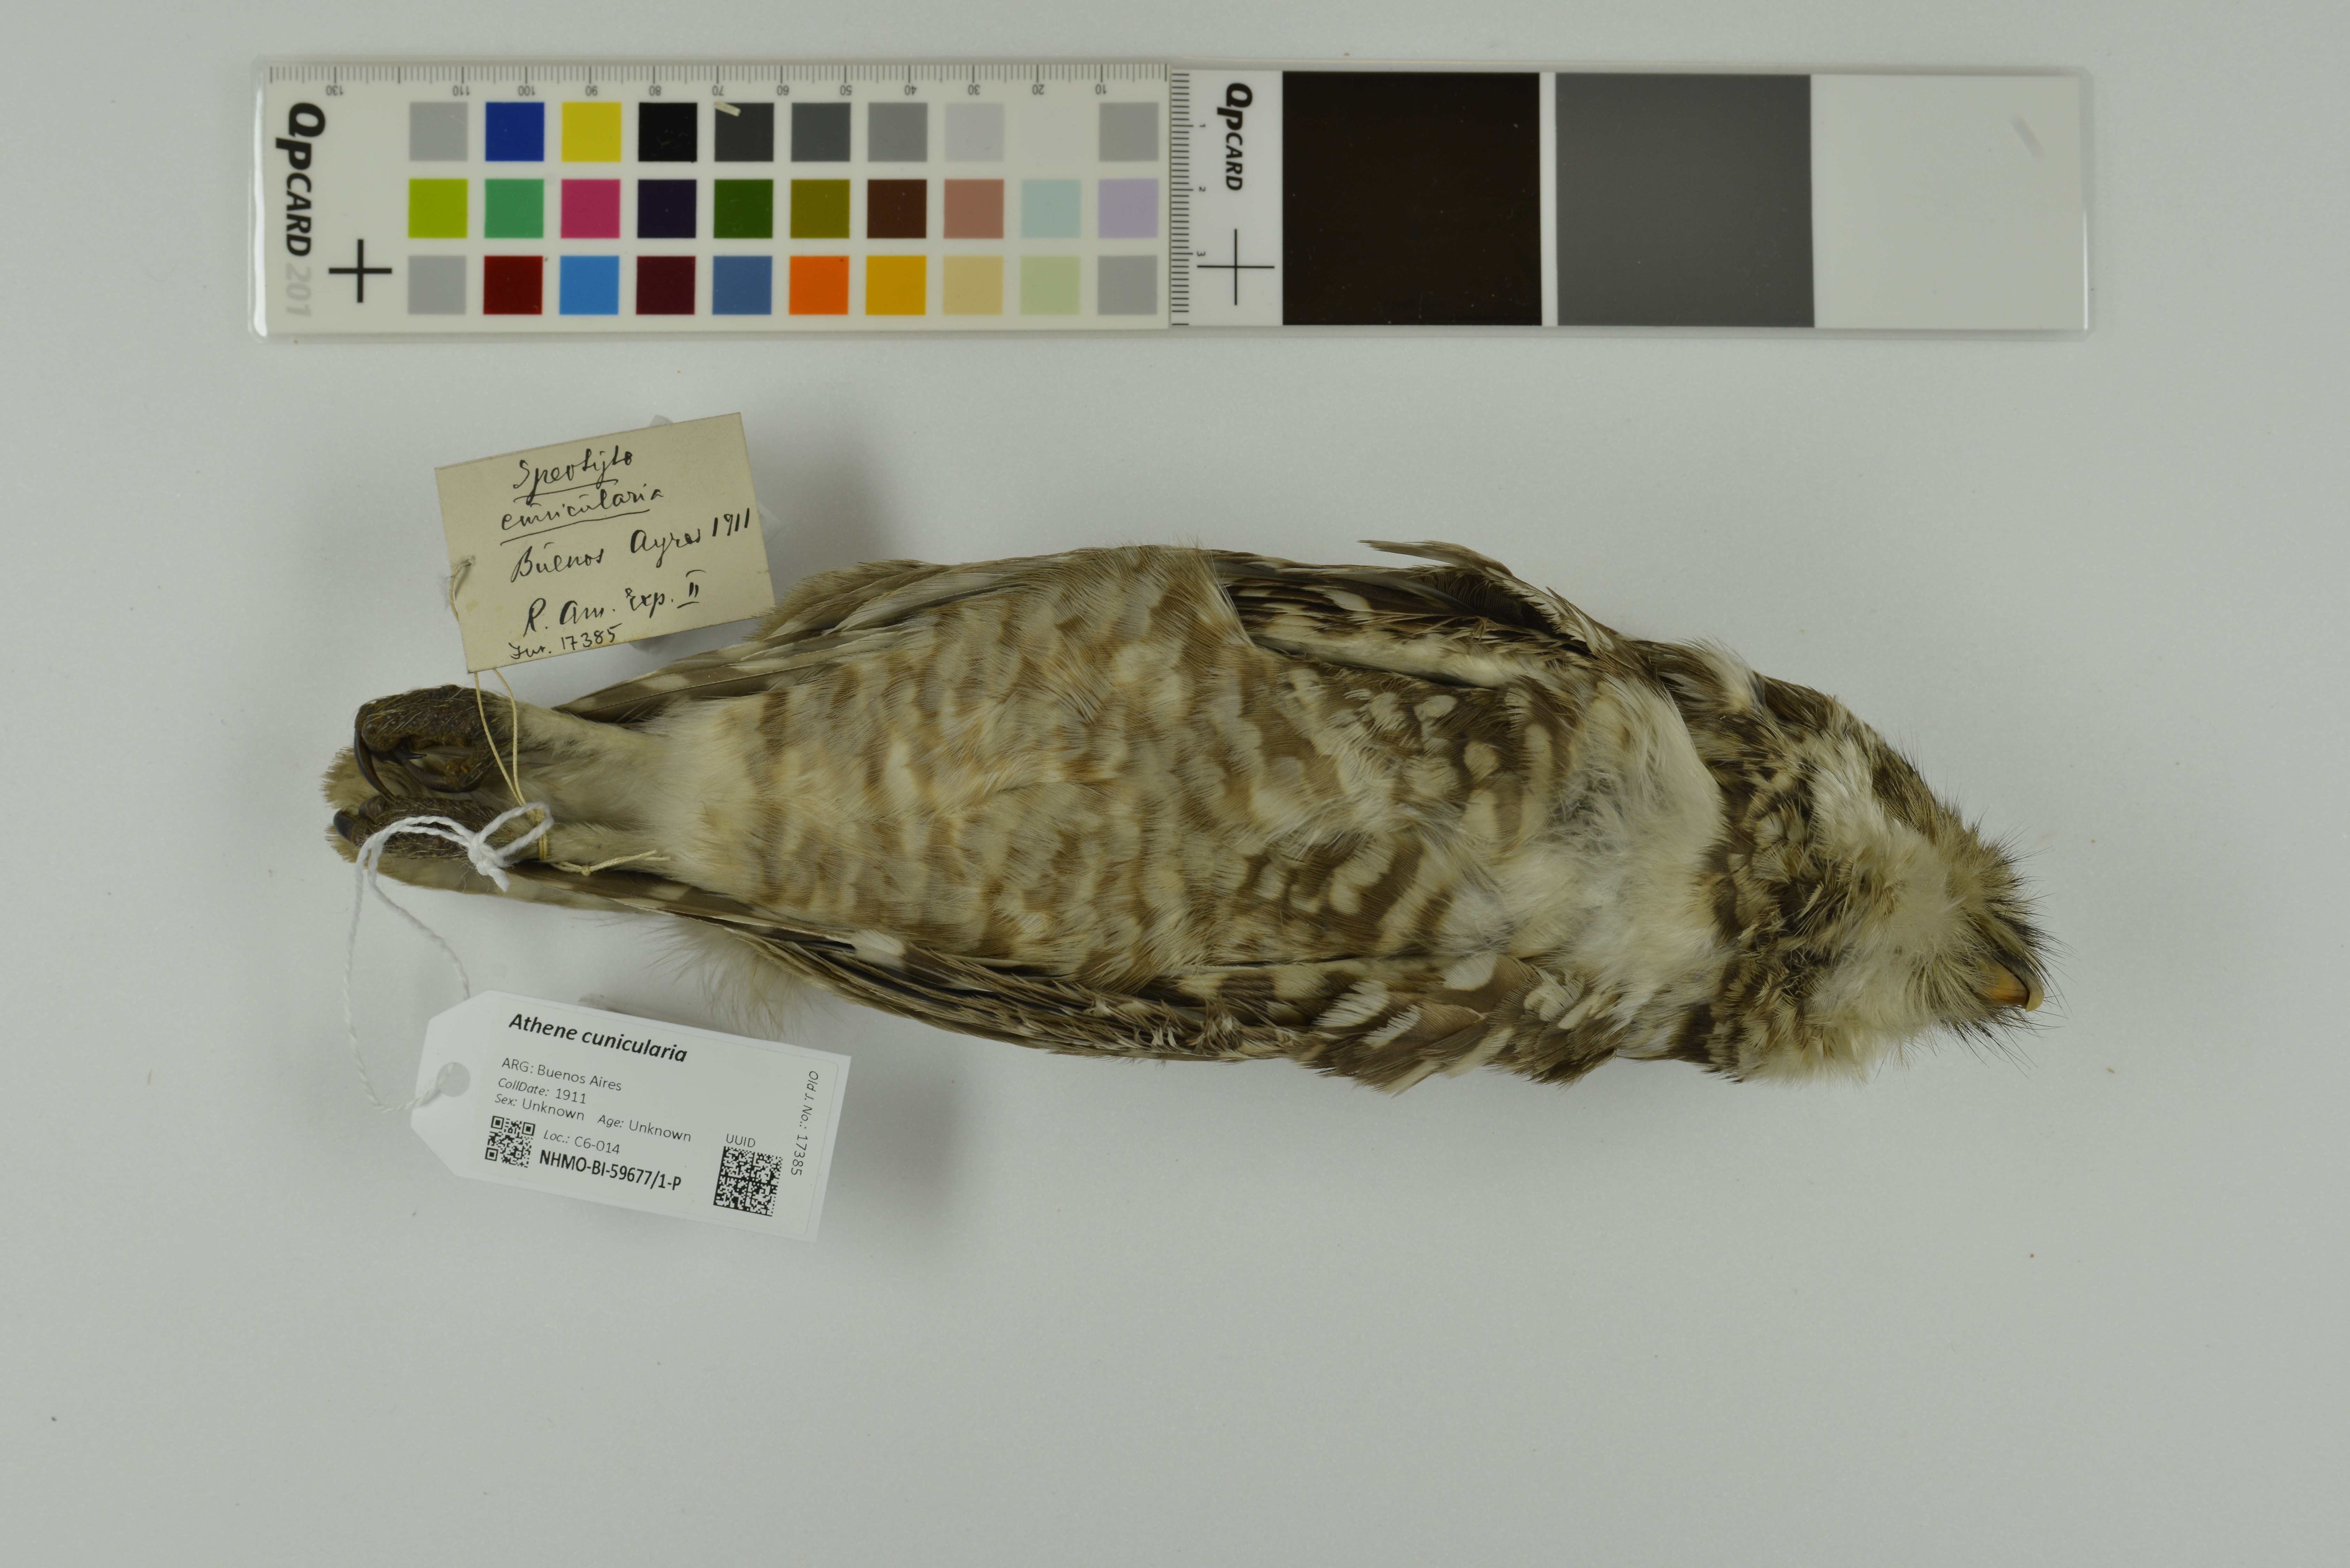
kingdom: Animalia
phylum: Chordata
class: Aves
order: Strigiformes
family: Strigidae
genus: Athene
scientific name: Athene cunicularia
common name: Burrowing owl
